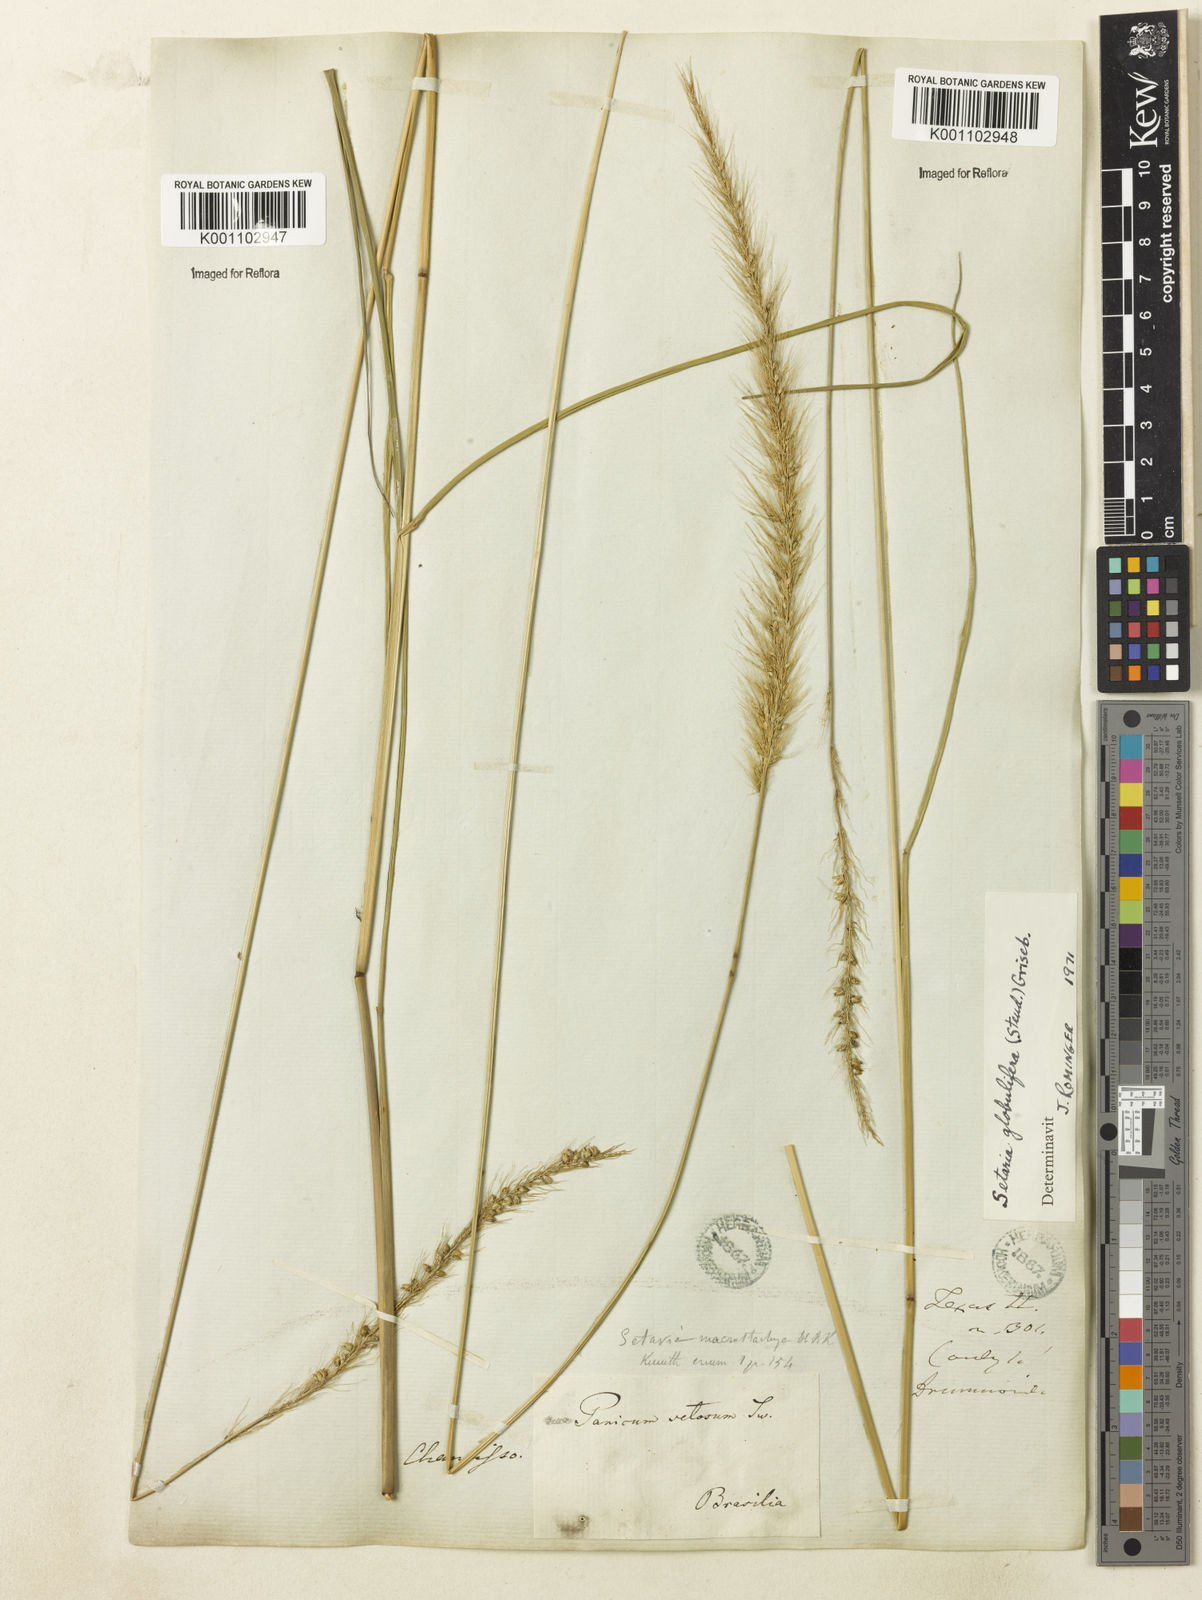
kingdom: Plantae
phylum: Tracheophyta
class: Liliopsida
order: Poales
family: Poaceae
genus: Setaria
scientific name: Setaria globulifera
